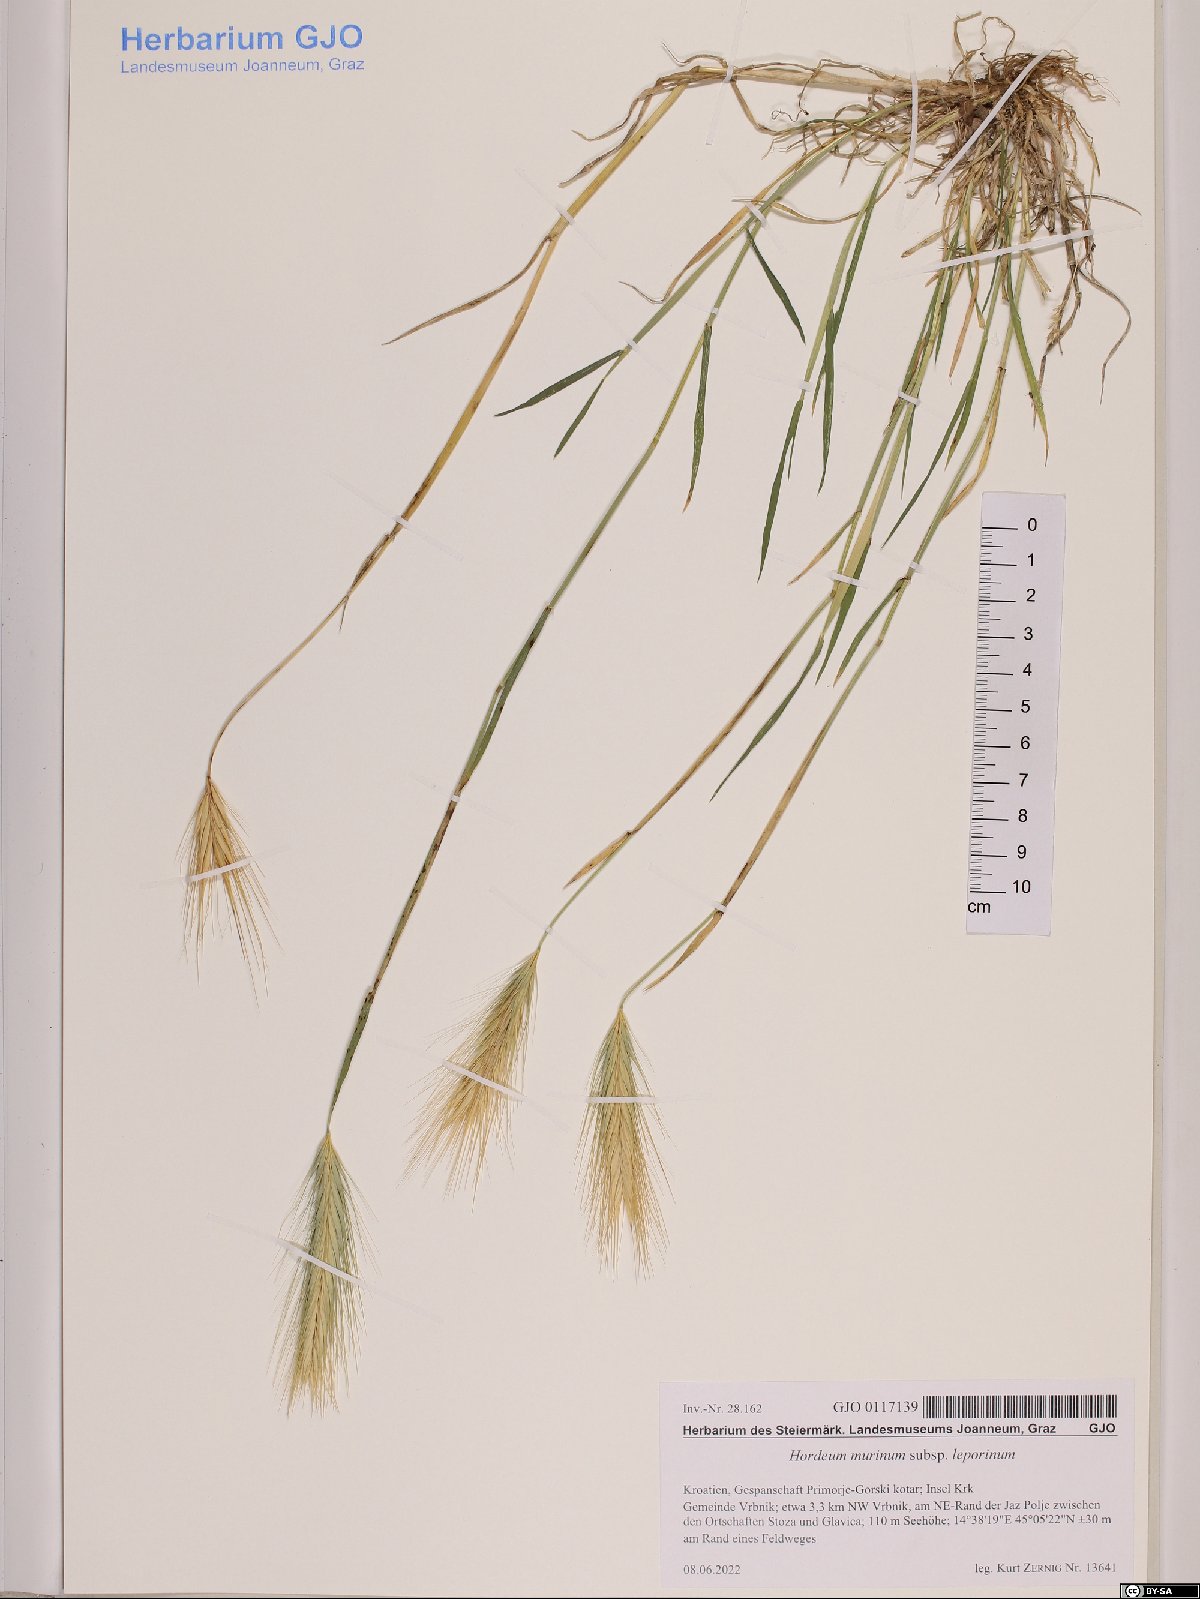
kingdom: Plantae
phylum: Tracheophyta
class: Liliopsida
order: Poales
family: Poaceae
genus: Hordeum
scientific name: Hordeum murinum
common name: Wall barley
